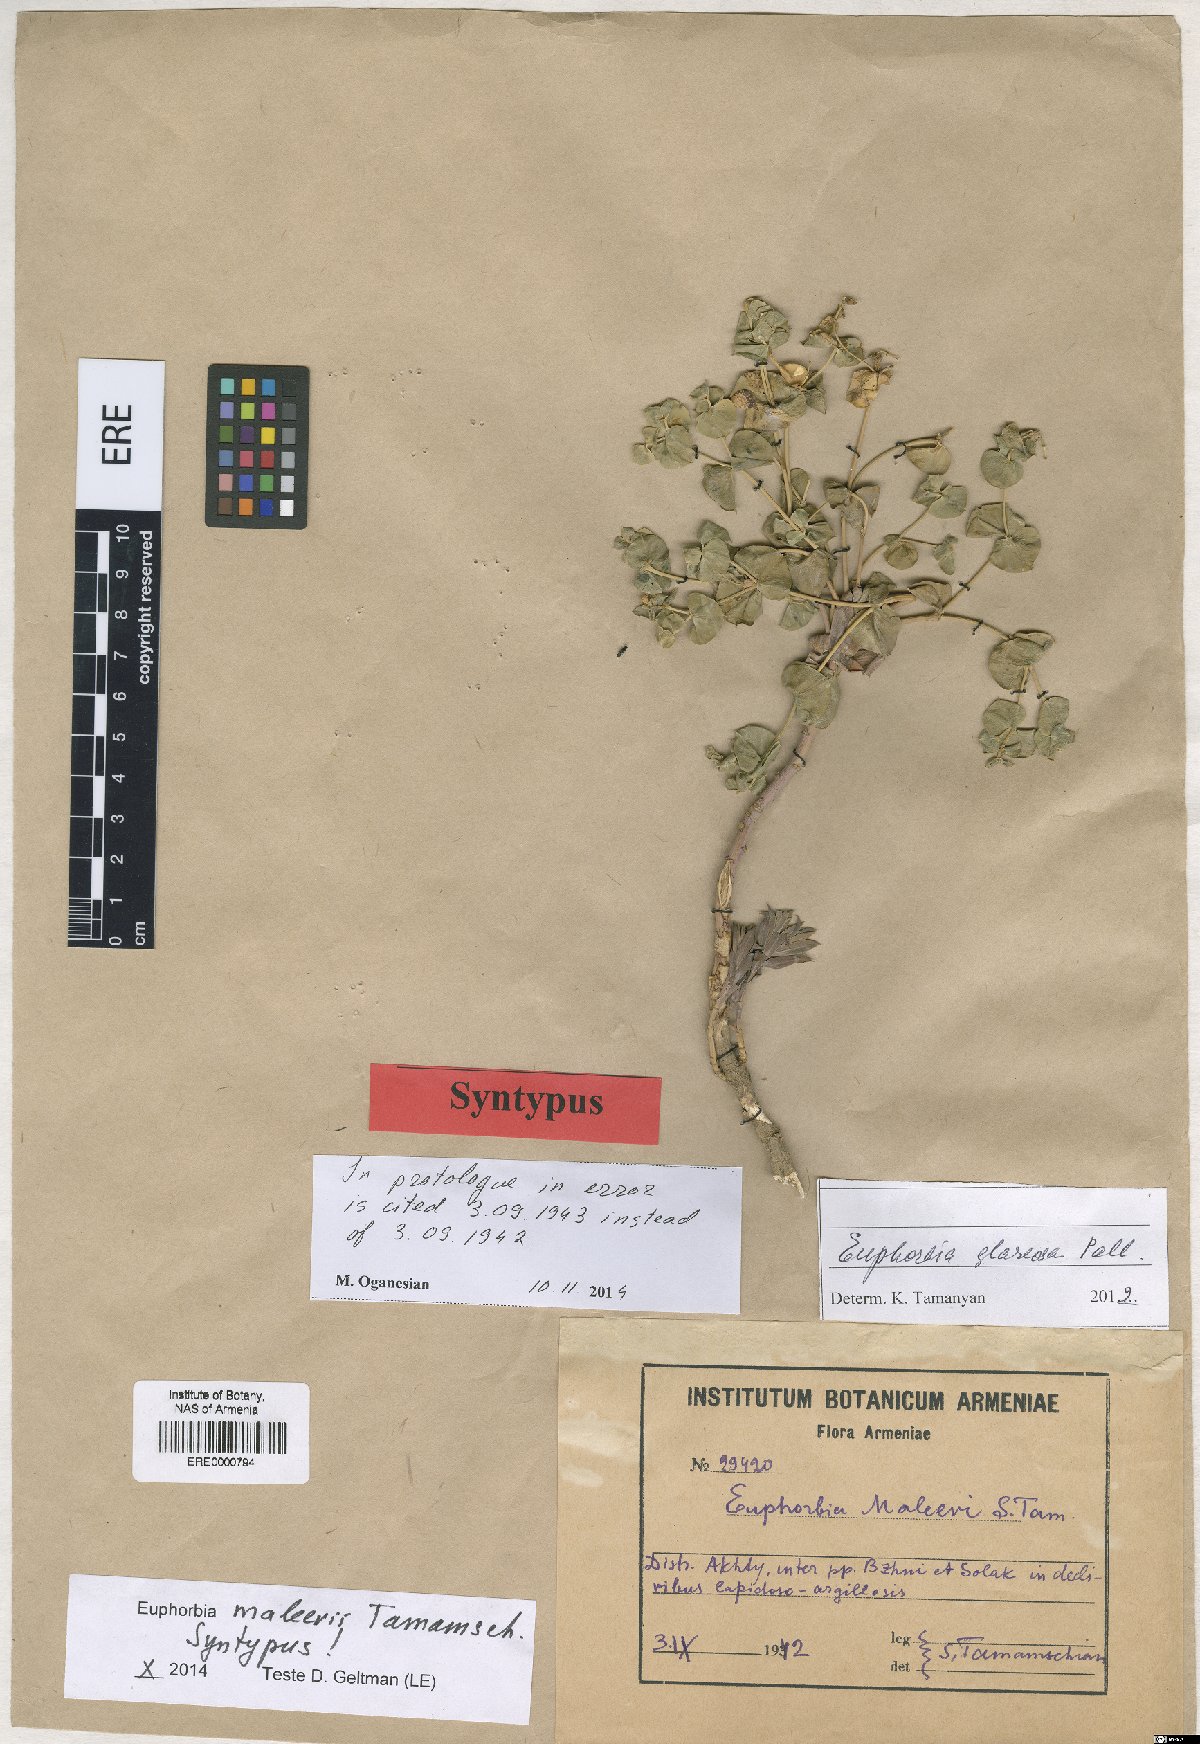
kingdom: Plantae
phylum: Tracheophyta
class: Magnoliopsida
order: Malpighiales
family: Euphorbiaceae
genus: Euphorbia
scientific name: Euphorbia glareosa
